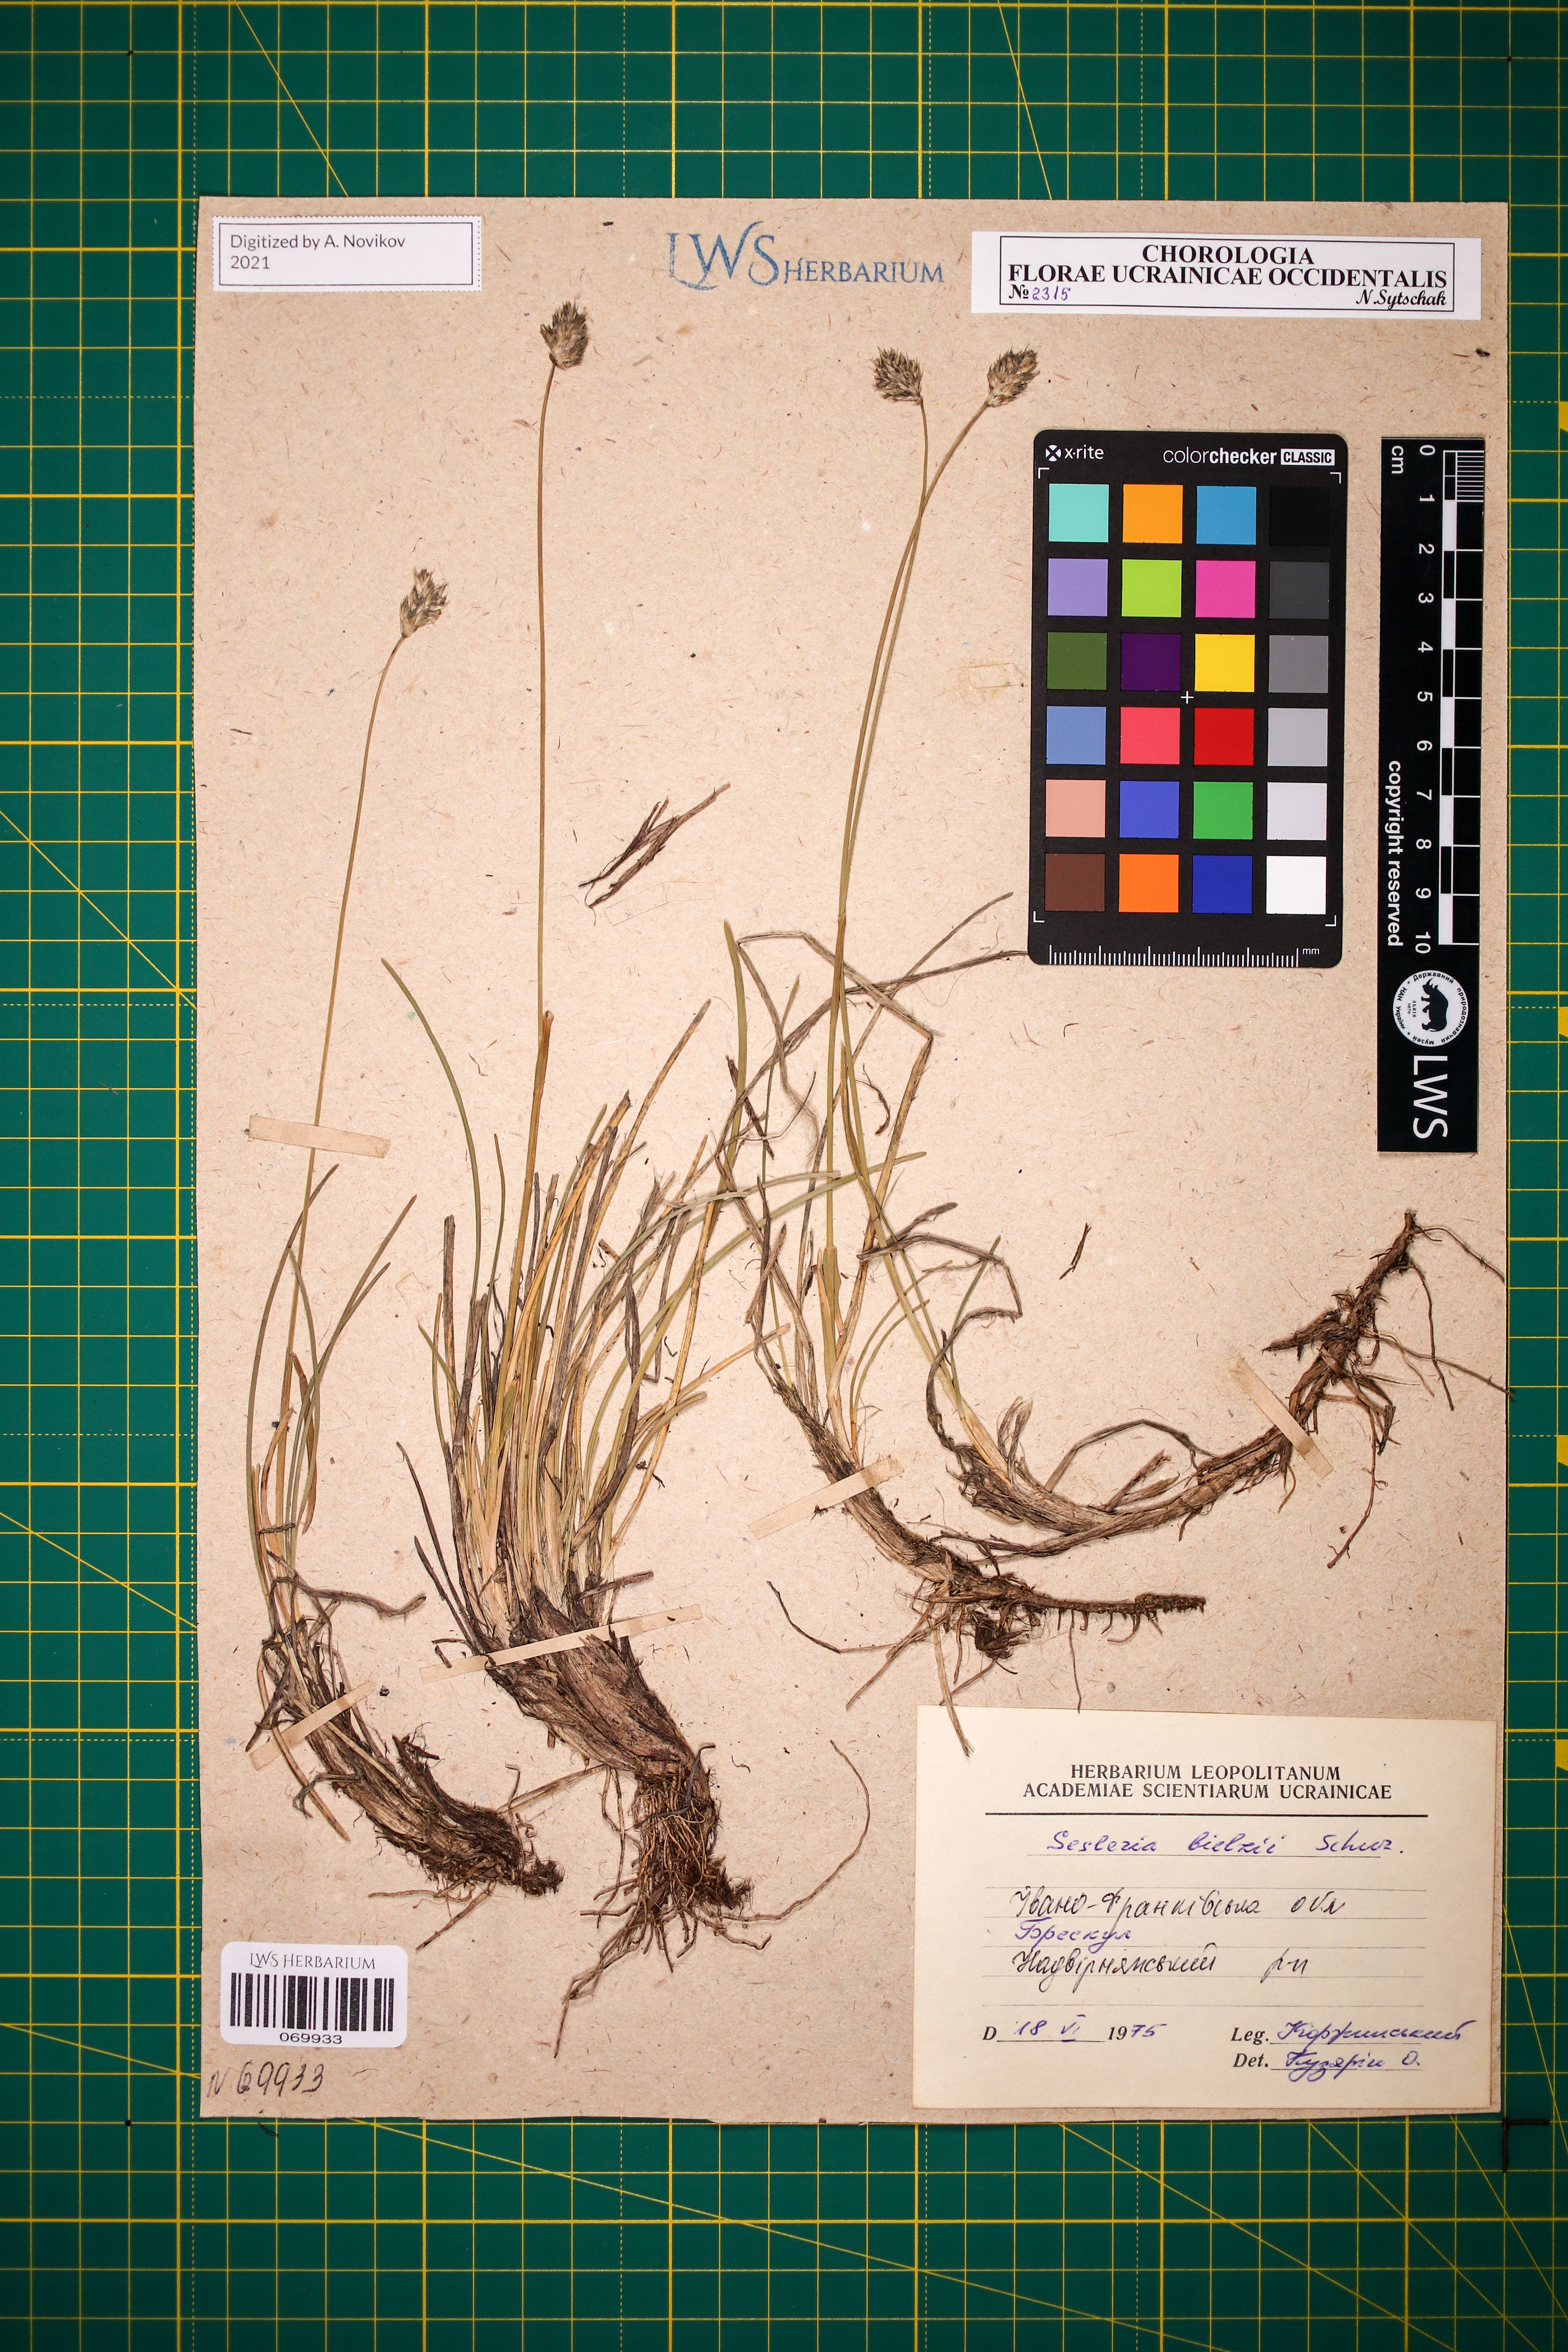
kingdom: Plantae
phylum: Tracheophyta
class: Liliopsida
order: Poales
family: Poaceae
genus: Sesleria
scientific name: Sesleria bielzii
